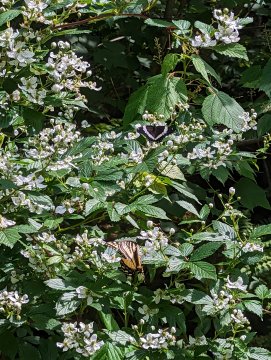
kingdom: Animalia
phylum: Arthropoda
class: Insecta
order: Lepidoptera
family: Nymphalidae
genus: Limenitis
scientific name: Limenitis arthemis
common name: Red-spotted Admiral
